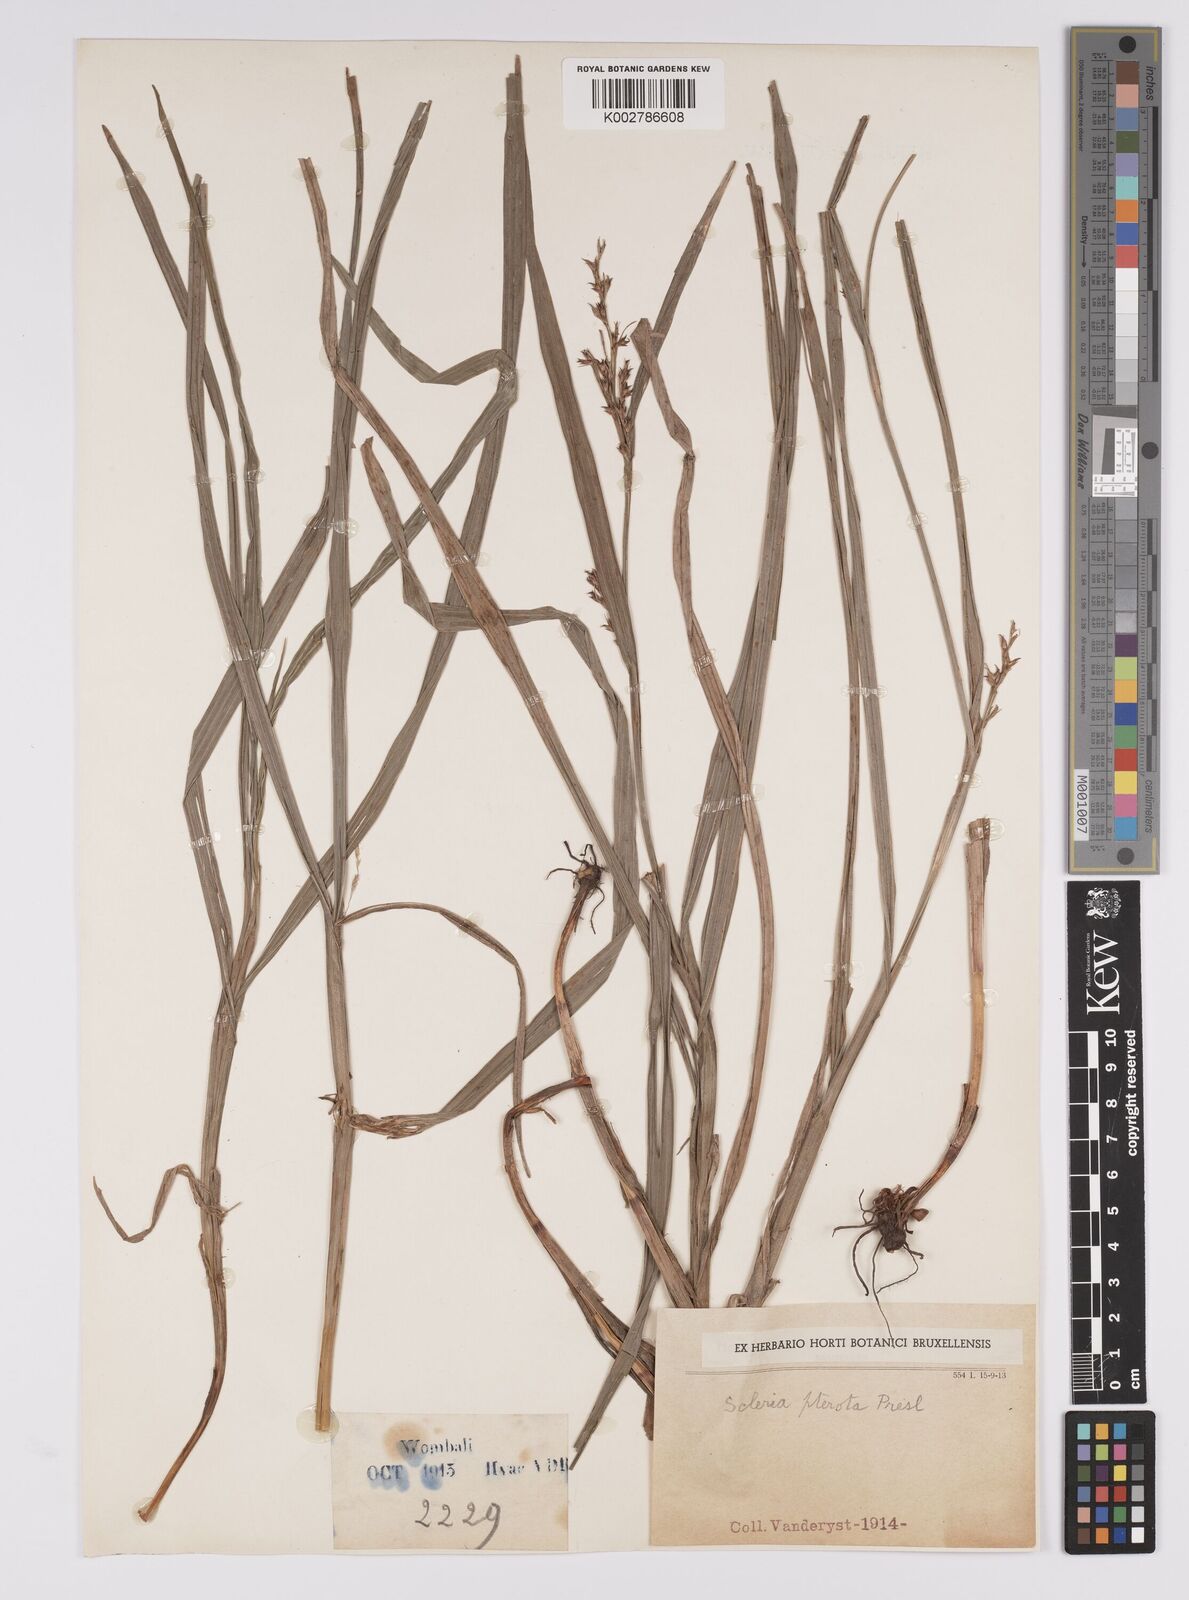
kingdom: Plantae
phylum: Tracheophyta
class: Liliopsida
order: Poales
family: Cyperaceae
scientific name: Cyperaceae
